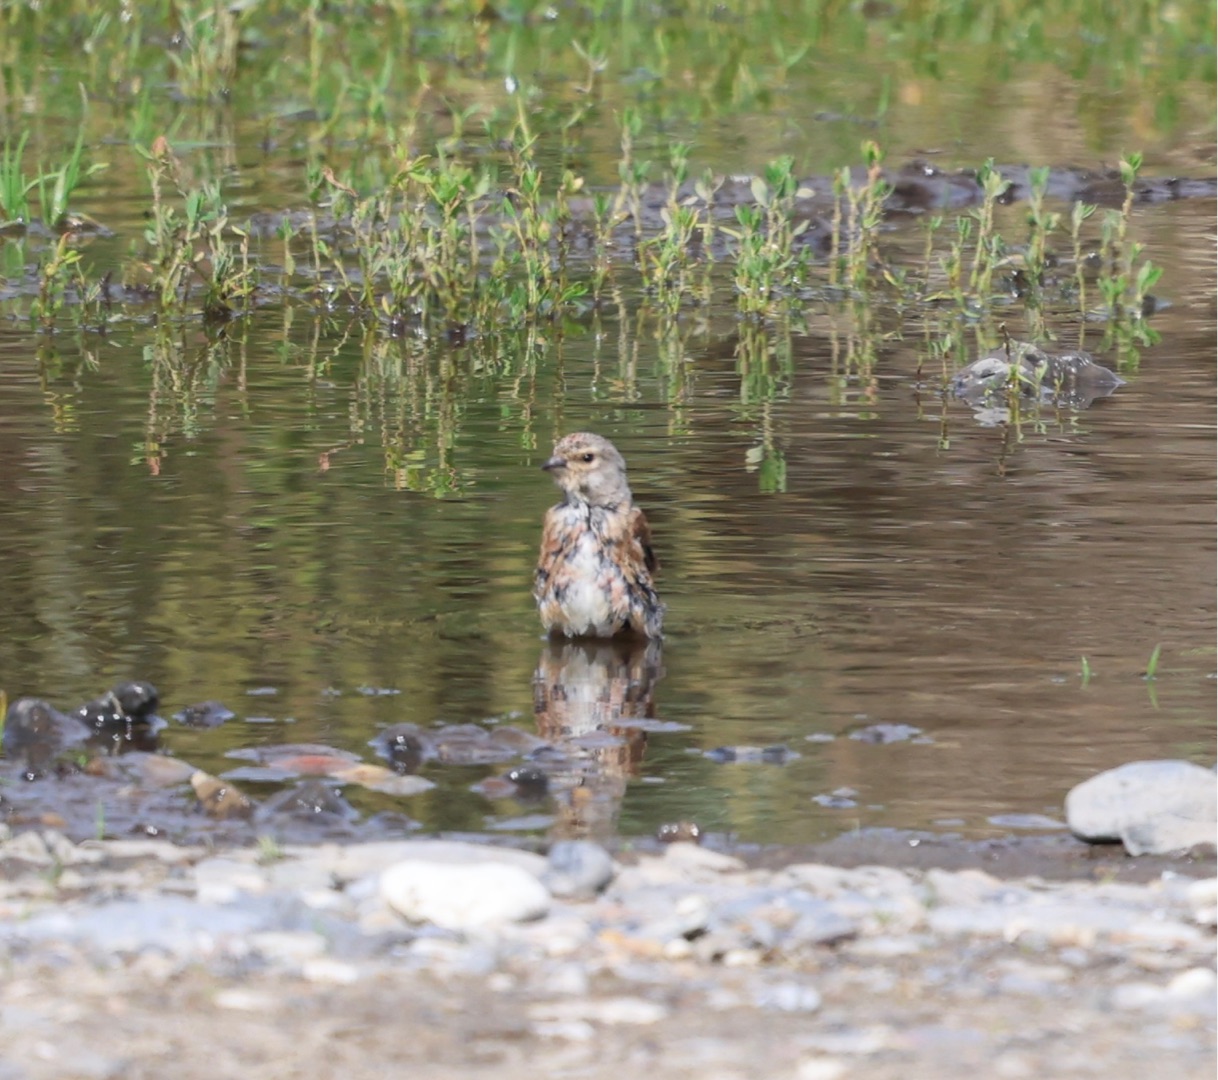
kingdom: Animalia
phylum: Chordata
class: Aves
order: Passeriformes
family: Fringillidae
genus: Linaria
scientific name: Linaria cannabina
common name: Tornirisk
